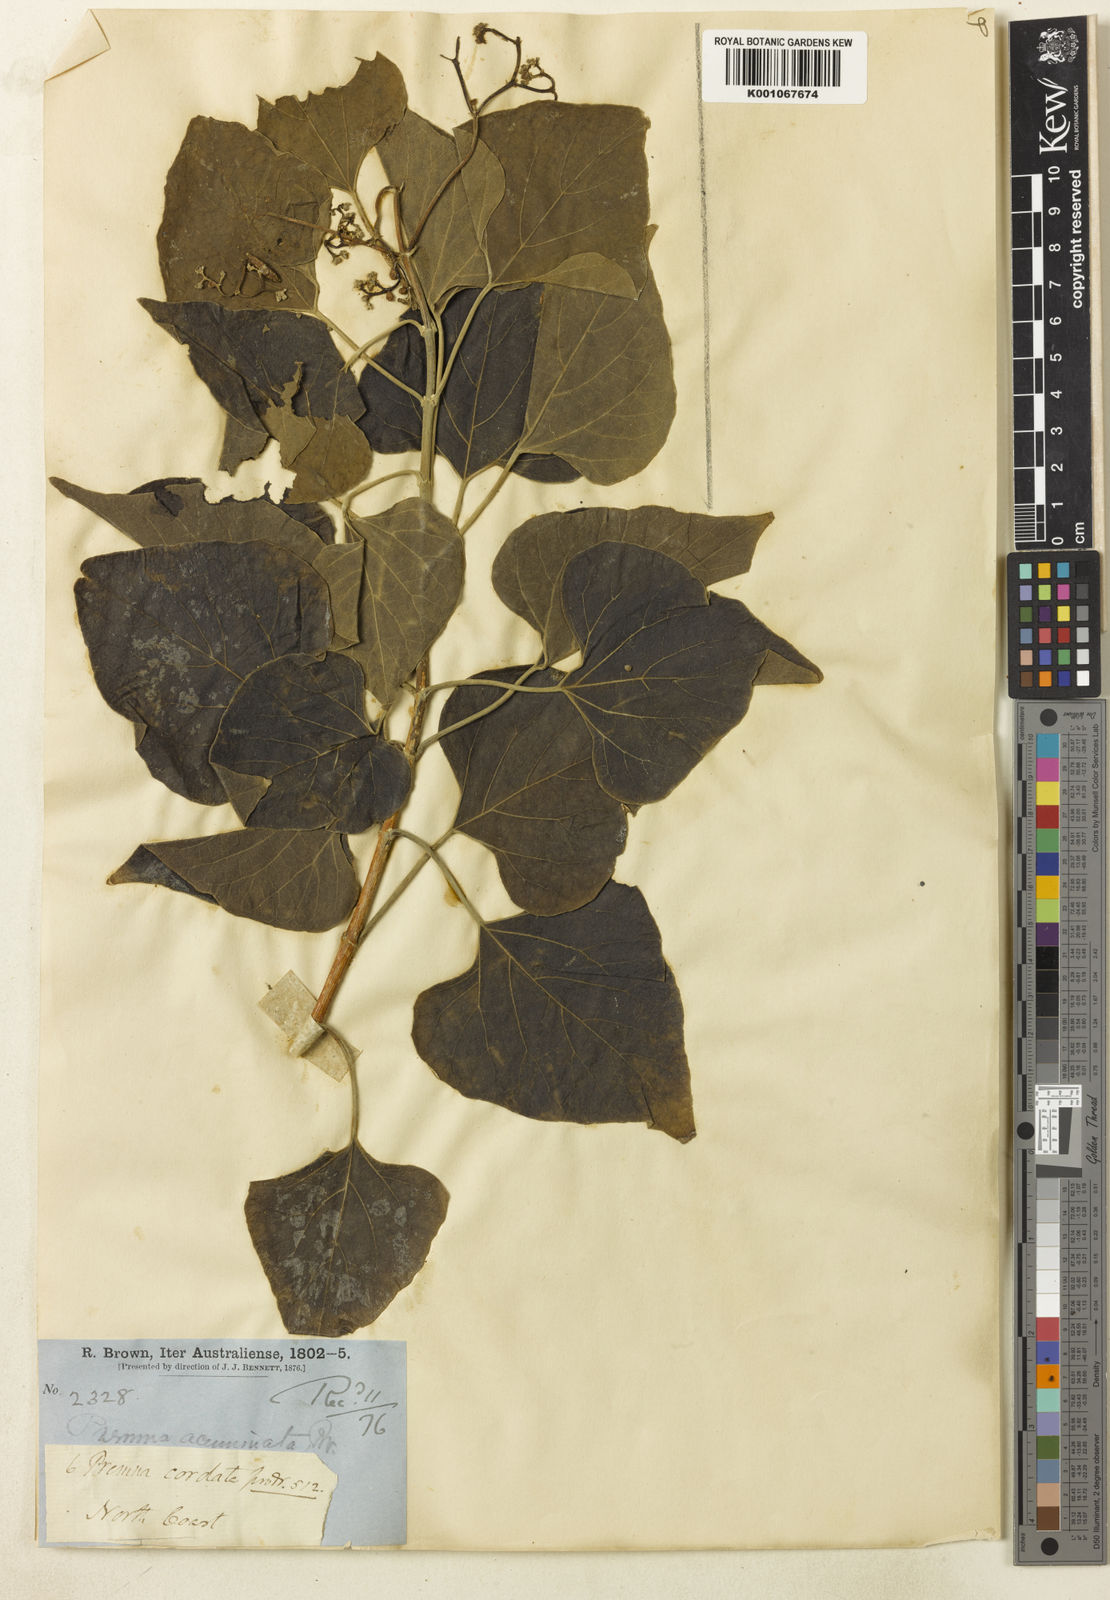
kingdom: Plantae
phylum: Tracheophyta
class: Magnoliopsida
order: Lamiales
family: Lamiaceae
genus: Premna
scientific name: Premna acuminata
